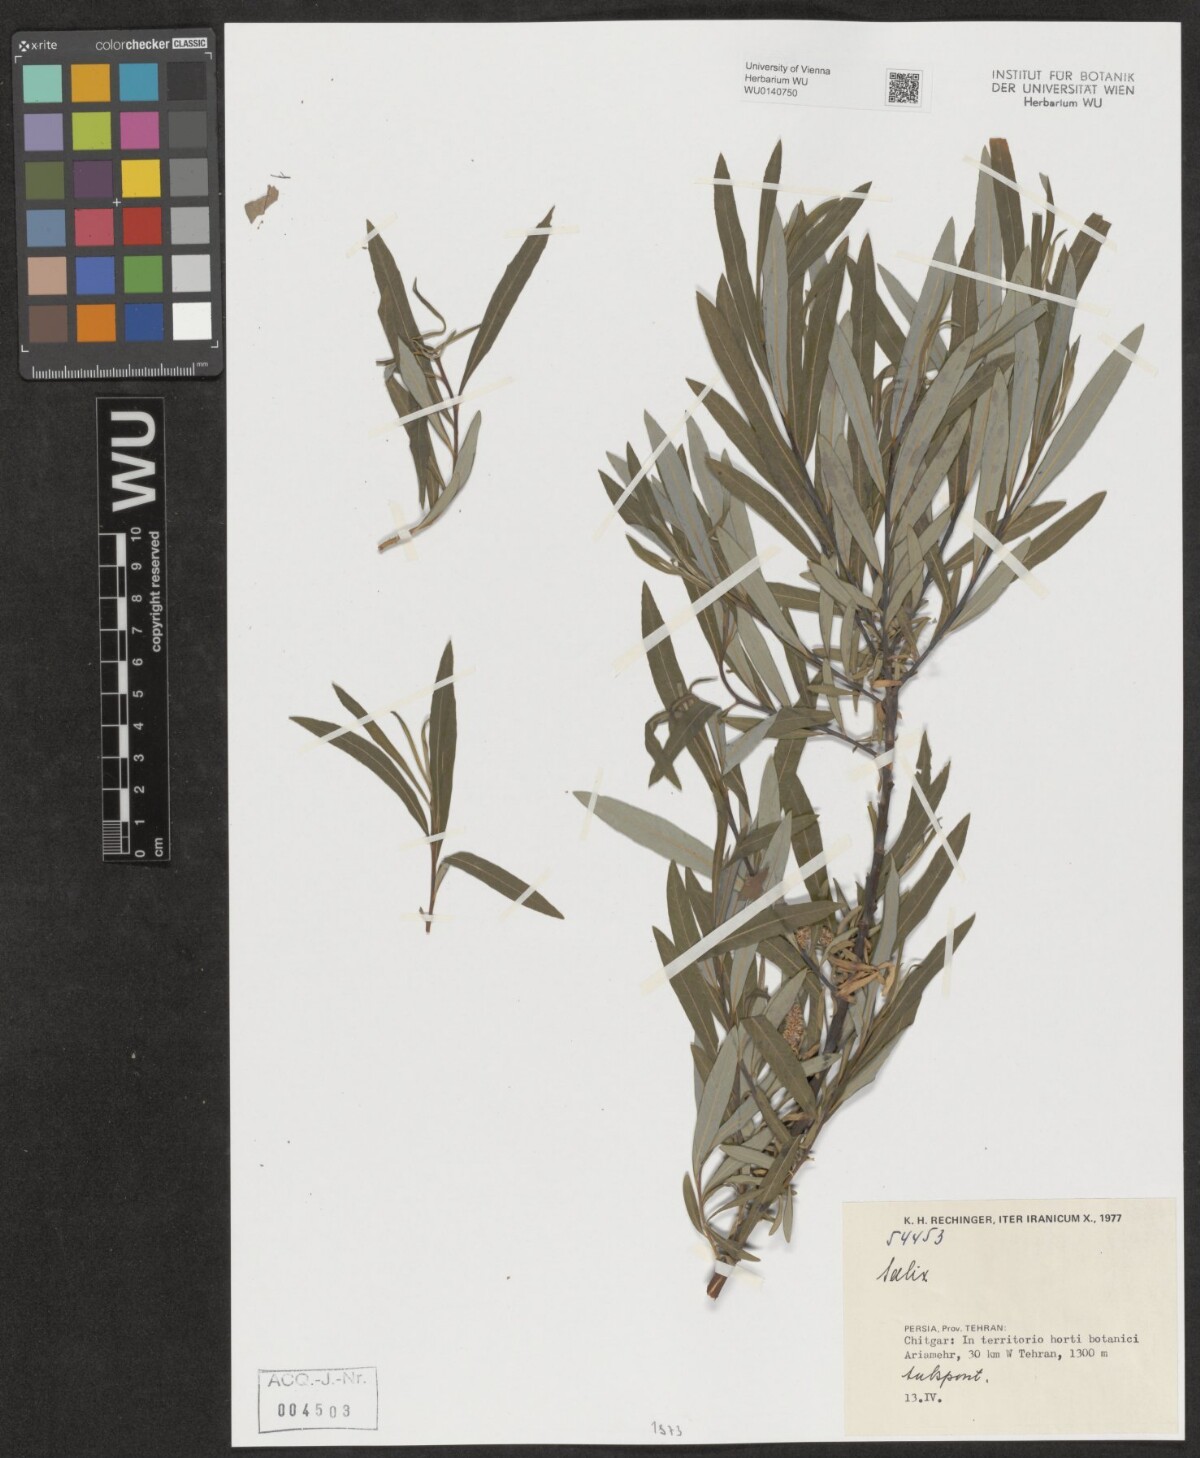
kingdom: Plantae
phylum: Tracheophyta
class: Magnoliopsida
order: Malpighiales
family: Salicaceae
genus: Salix
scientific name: Salix
